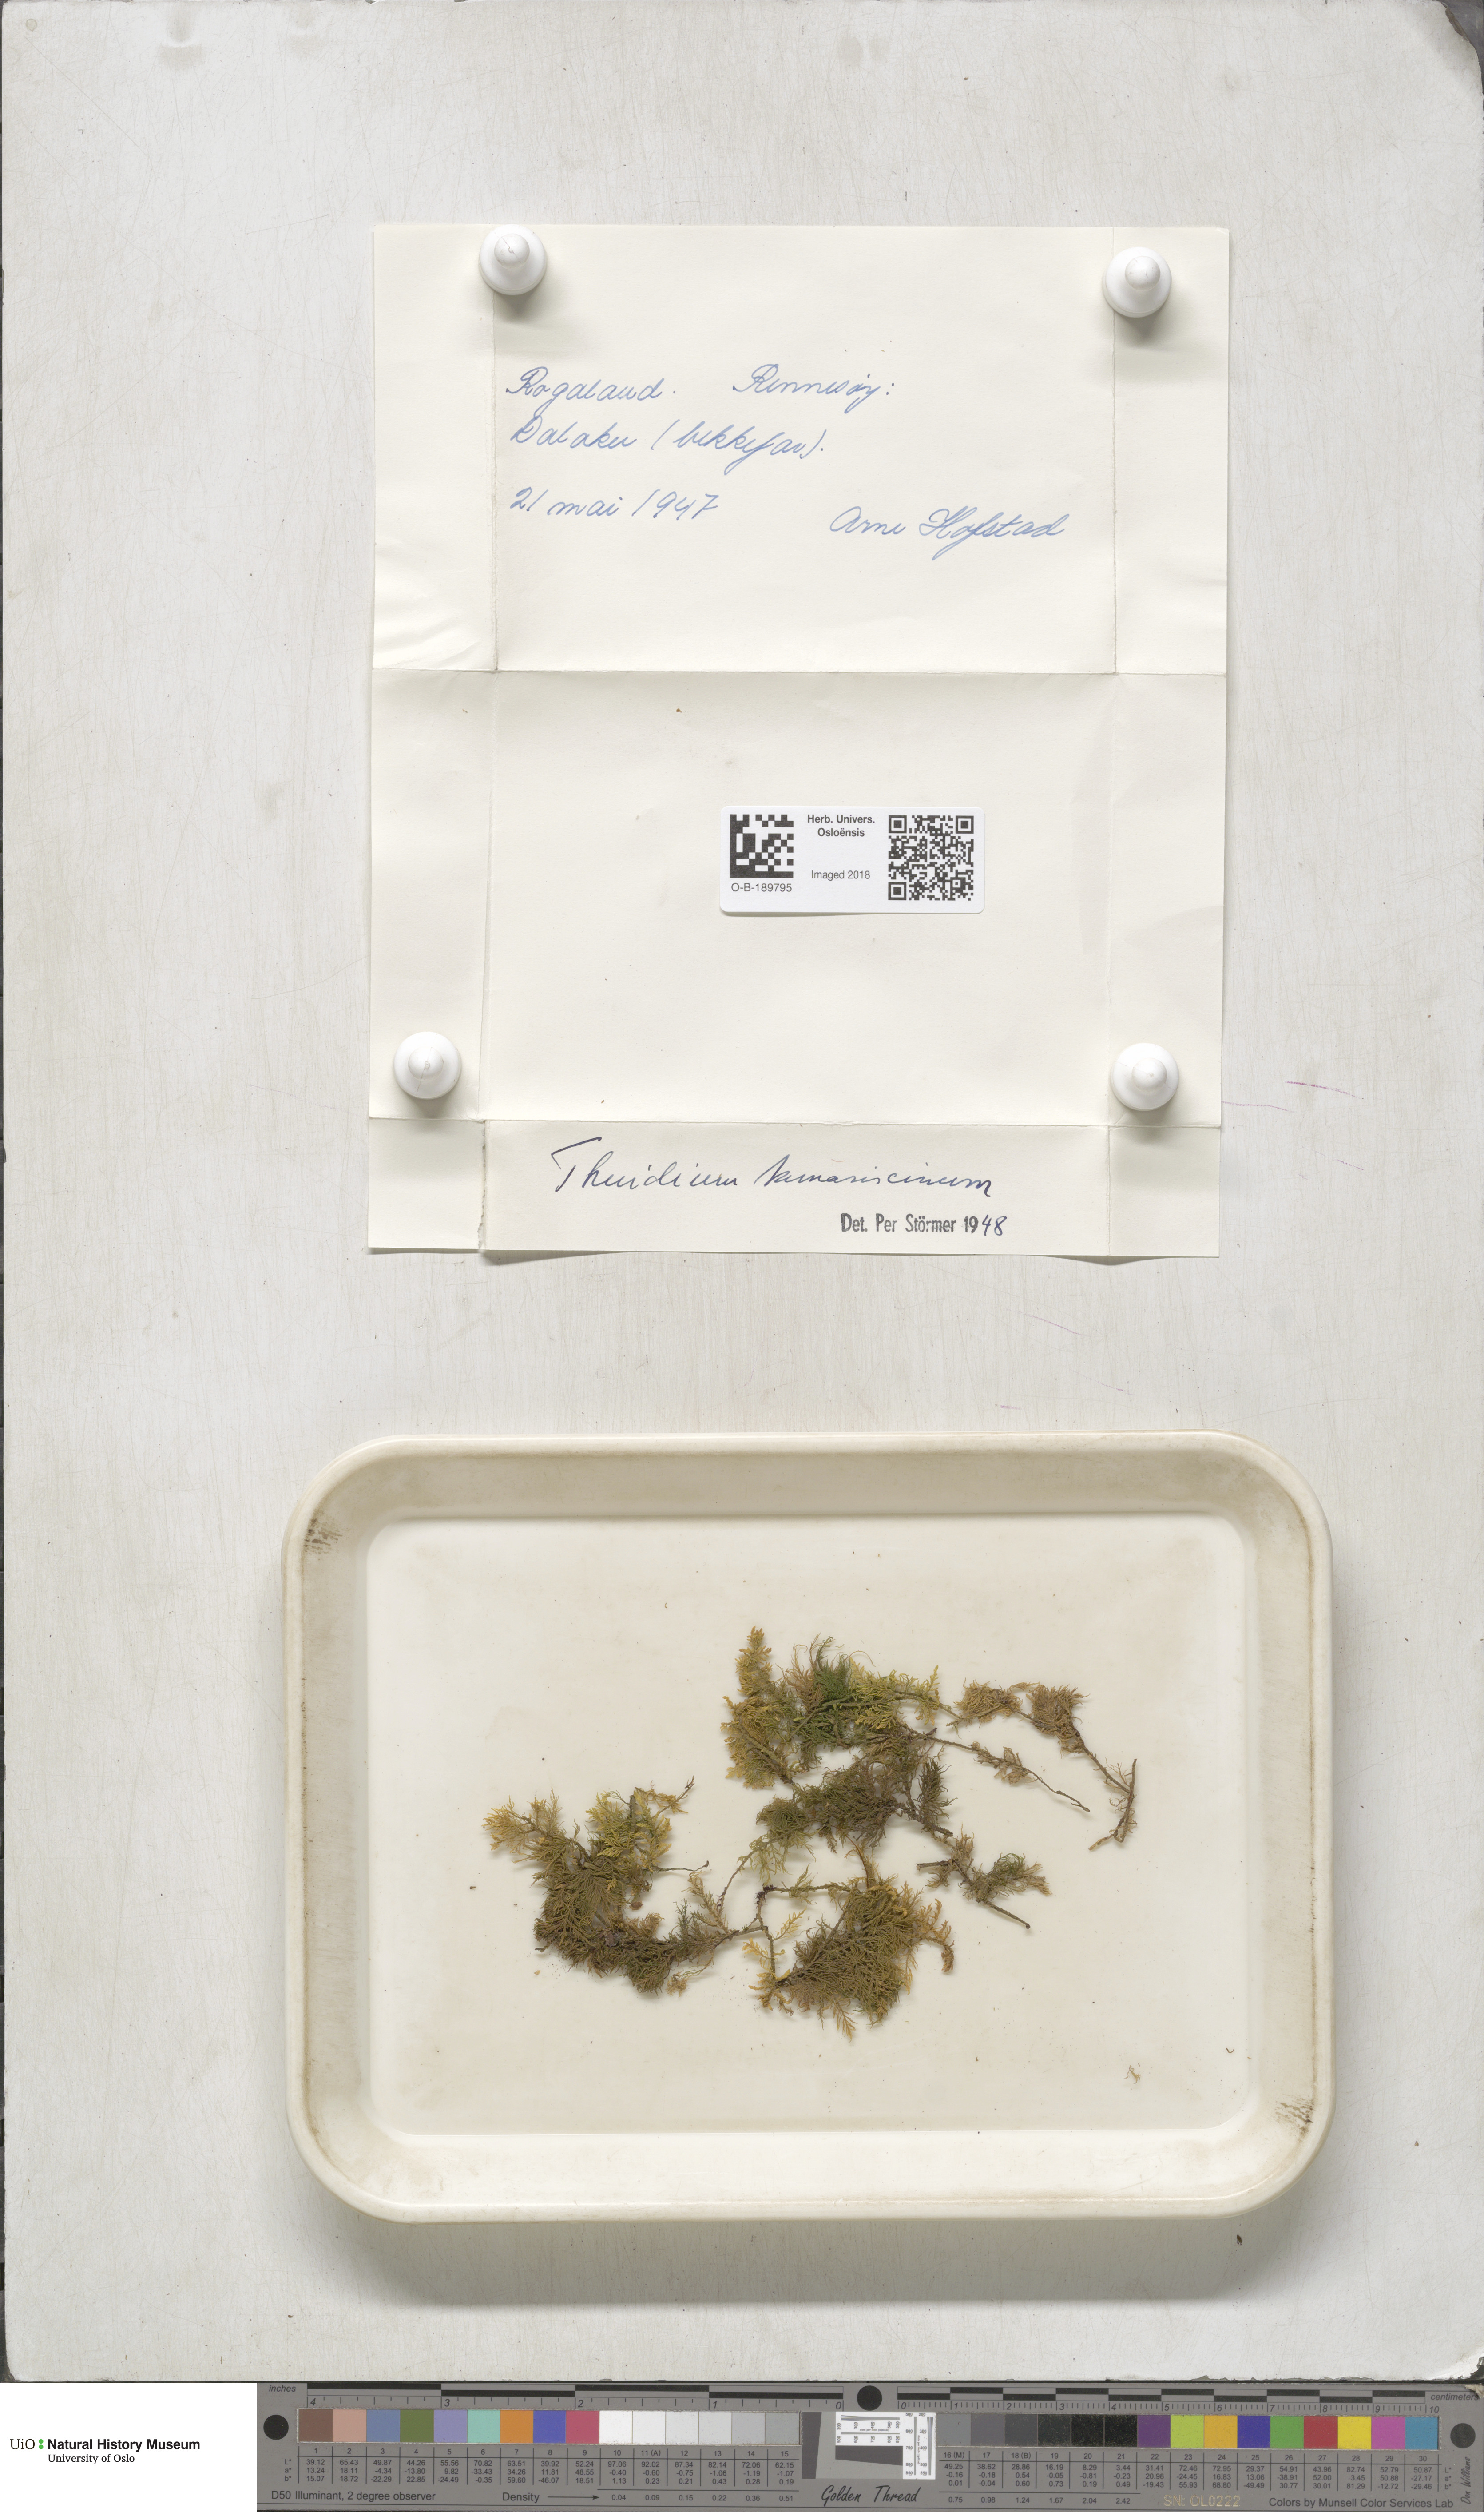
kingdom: Plantae
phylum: Bryophyta
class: Bryopsida
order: Hypnales
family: Thuidiaceae
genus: Thuidium
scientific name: Thuidium tamariscinum
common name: Common tamarisk-moss
